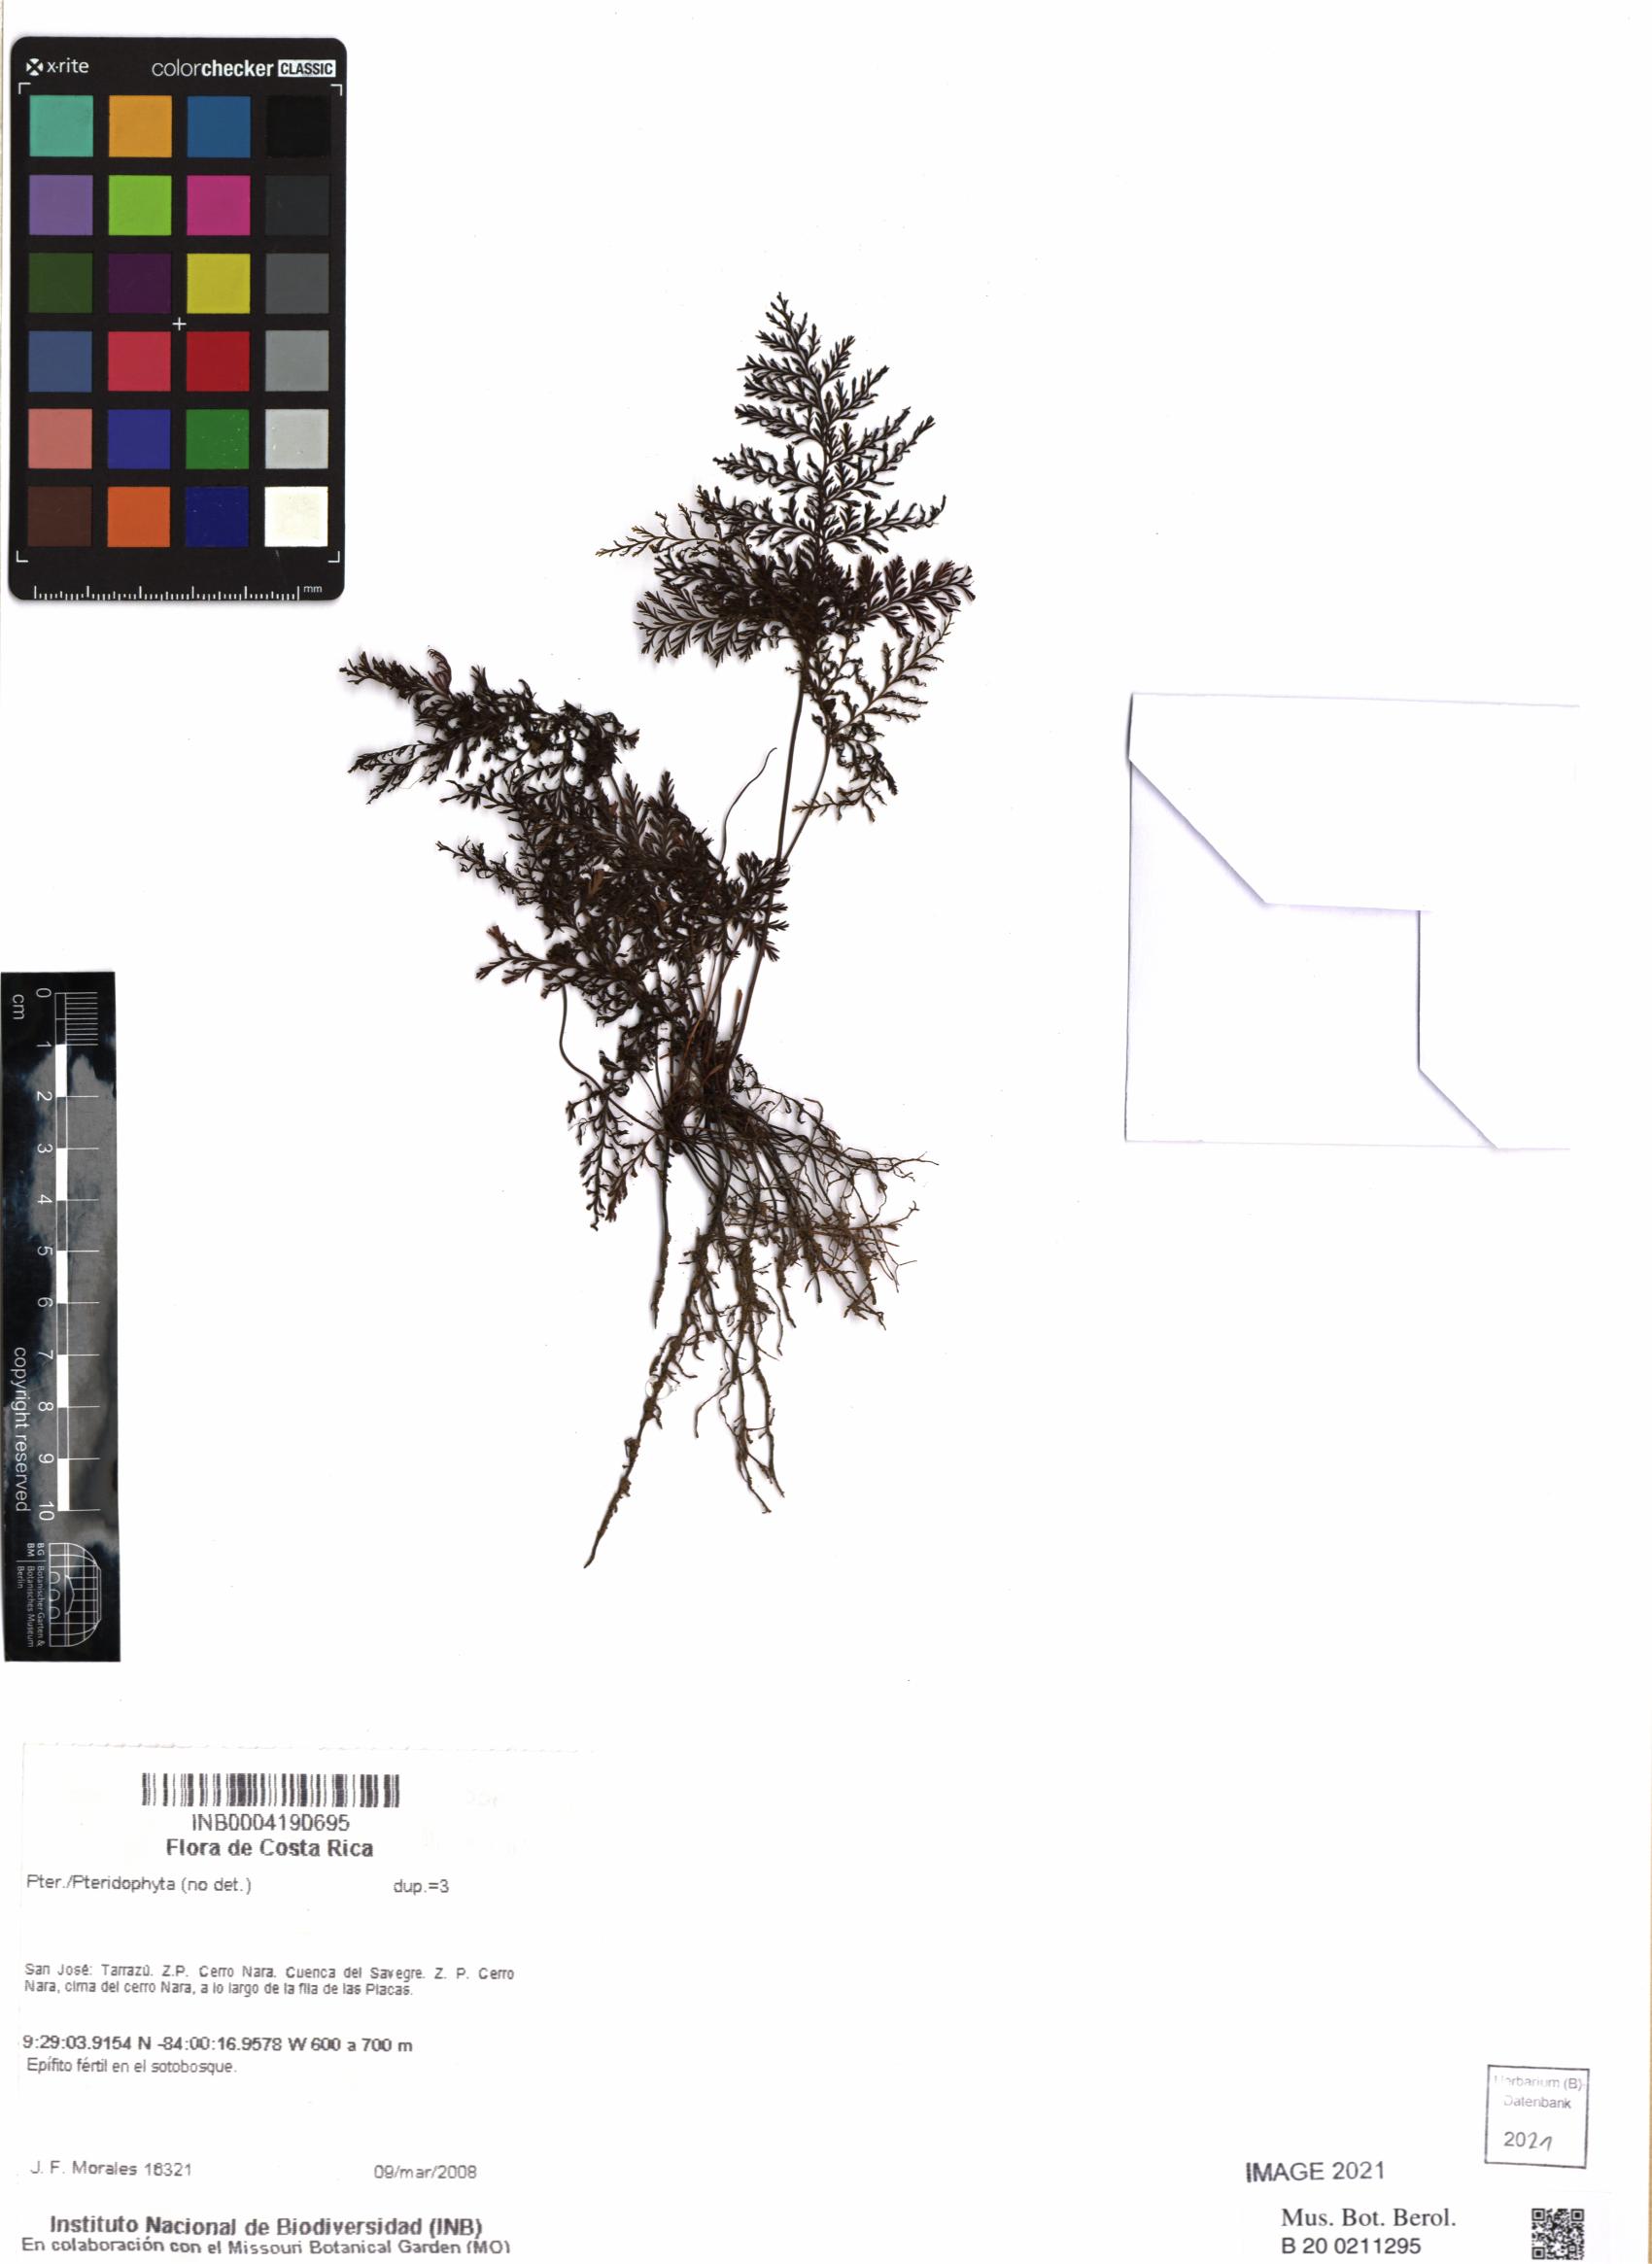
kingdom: Plantae
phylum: Tracheophyta
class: Polypodiopsida
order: Hymenophyllales
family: Hymenophyllaceae
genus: Trichomanes
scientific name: Trichomanes
